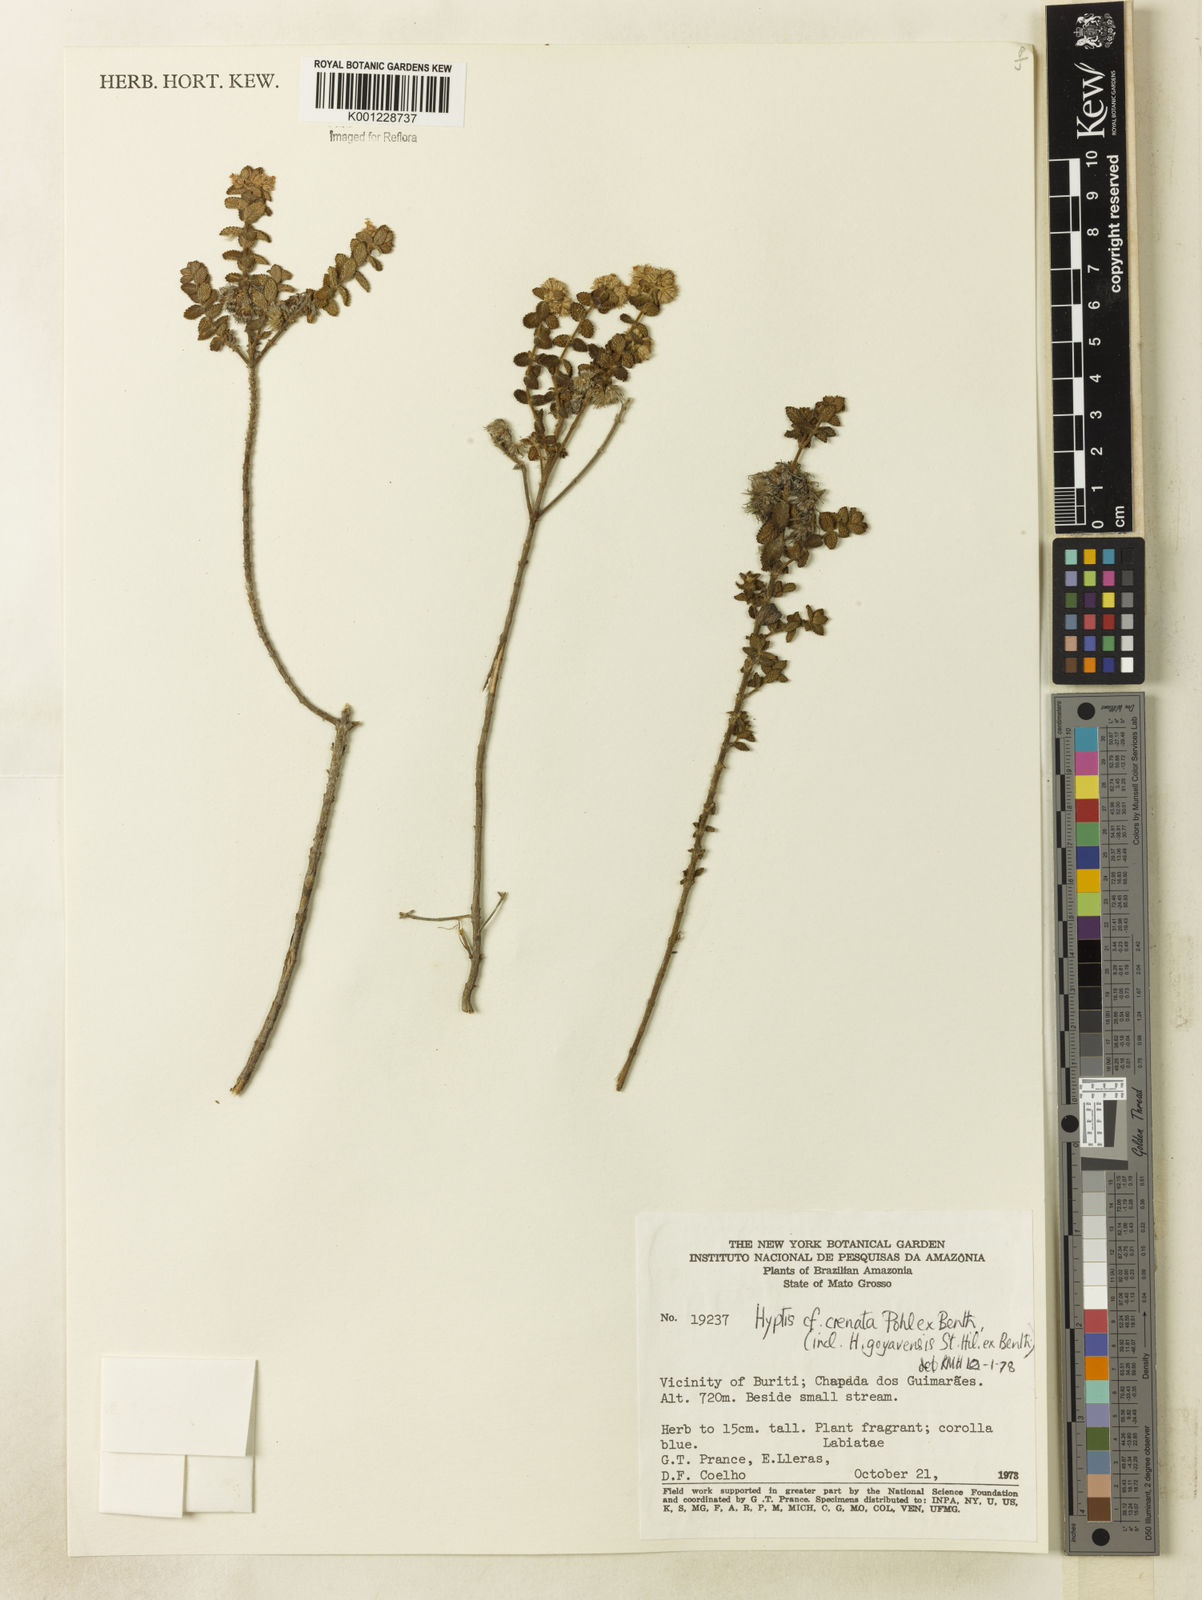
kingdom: Plantae
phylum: Tracheophyta
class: Magnoliopsida
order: Lamiales
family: Lamiaceae
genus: Hyptis
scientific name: Hyptis crenata
